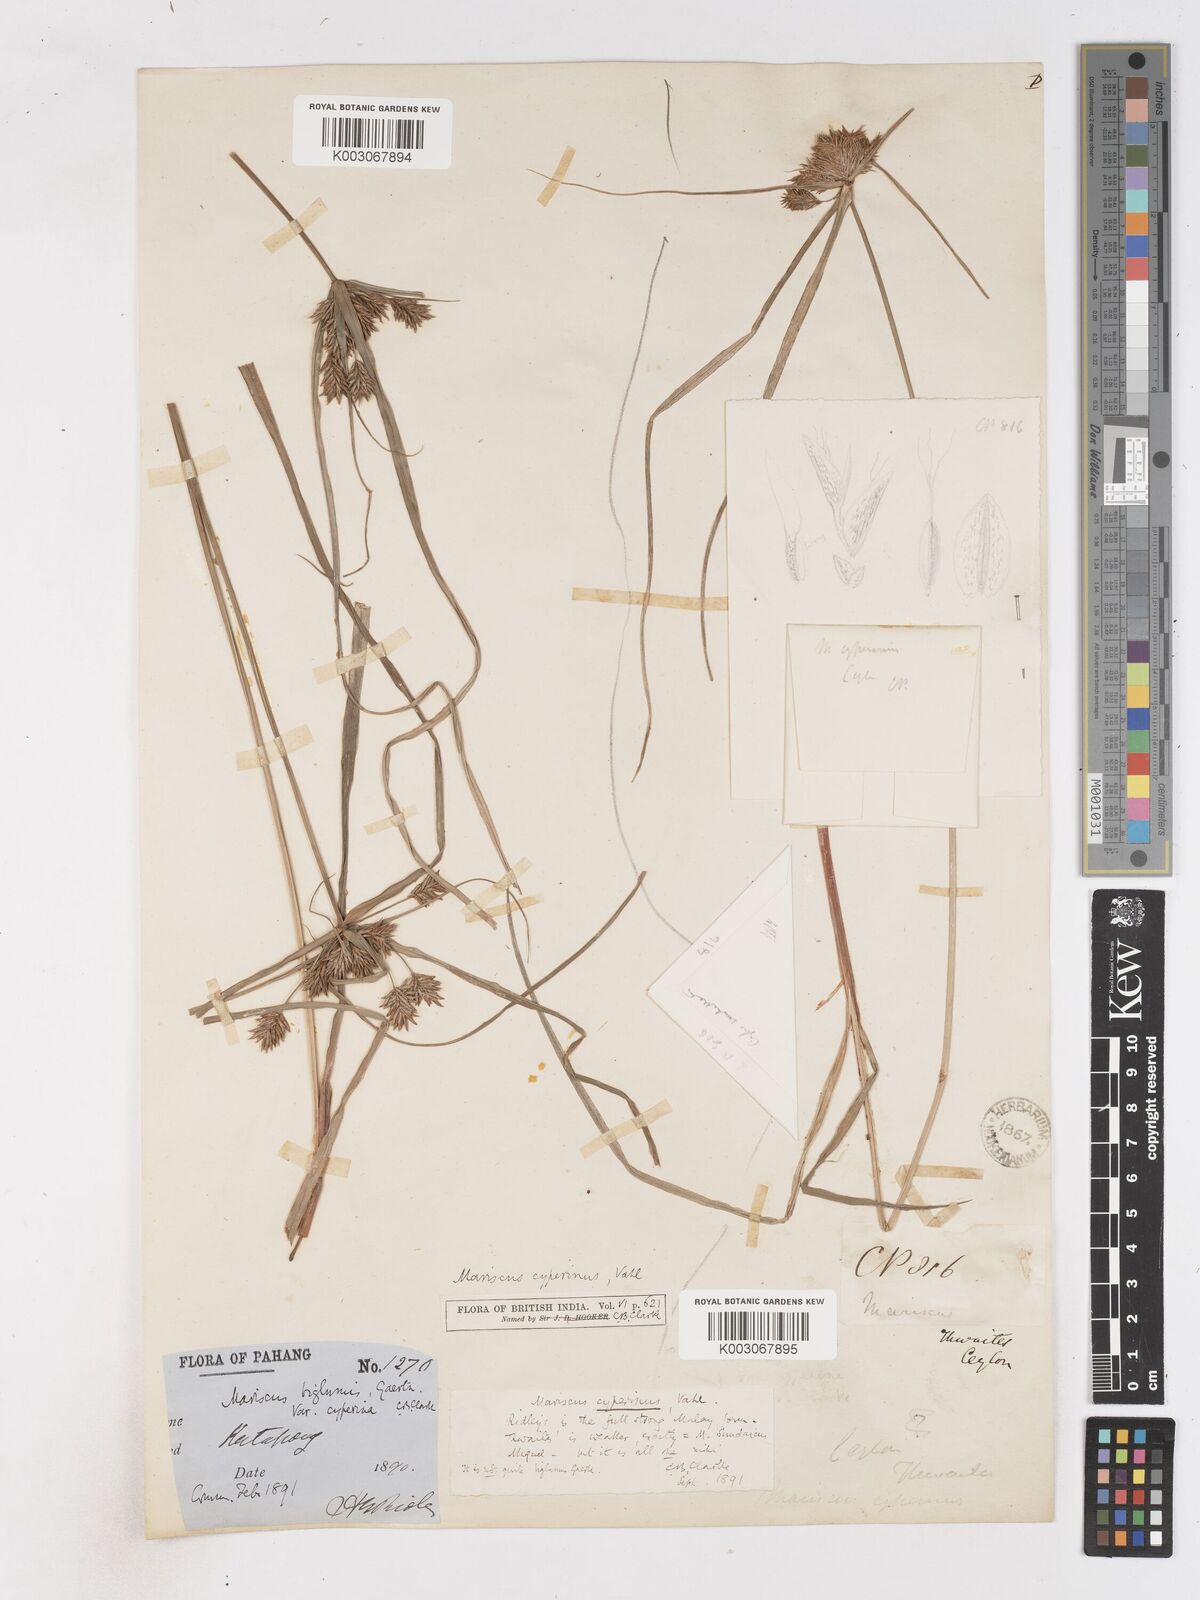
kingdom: Plantae
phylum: Tracheophyta
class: Liliopsida
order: Poales
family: Cyperaceae
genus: Cyperus
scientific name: Cyperus cyperinus
